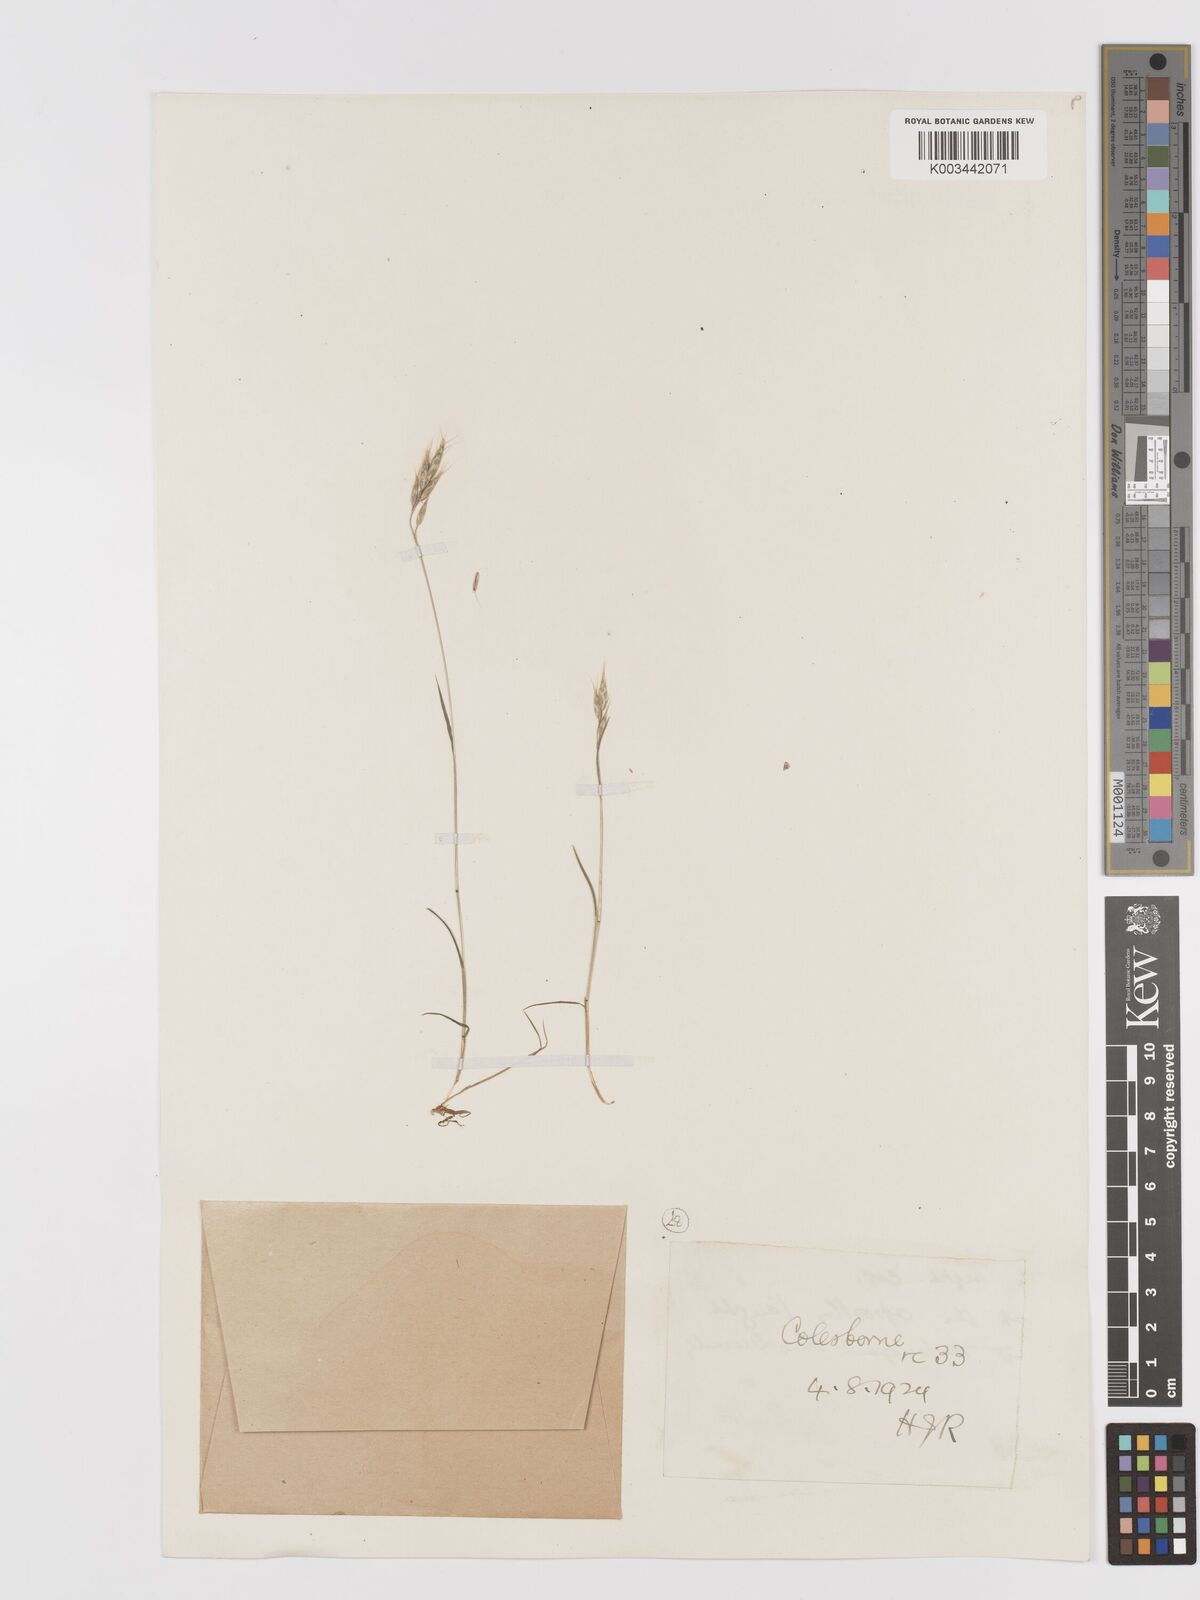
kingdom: Plantae
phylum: Tracheophyta
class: Liliopsida
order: Poales
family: Poaceae
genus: Bromus
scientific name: Bromus lepidus
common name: Slender soft-brome
